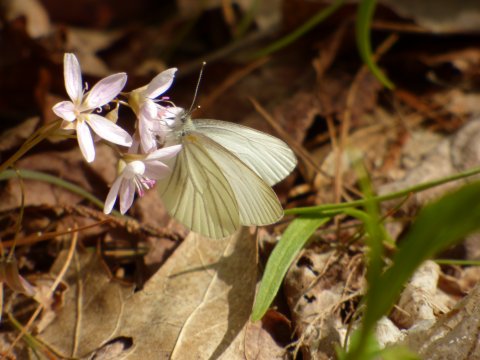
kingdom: Animalia
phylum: Arthropoda
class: Insecta
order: Lepidoptera
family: Pieridae
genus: Pieris
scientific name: Pieris virginiensis
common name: West Virginia White
